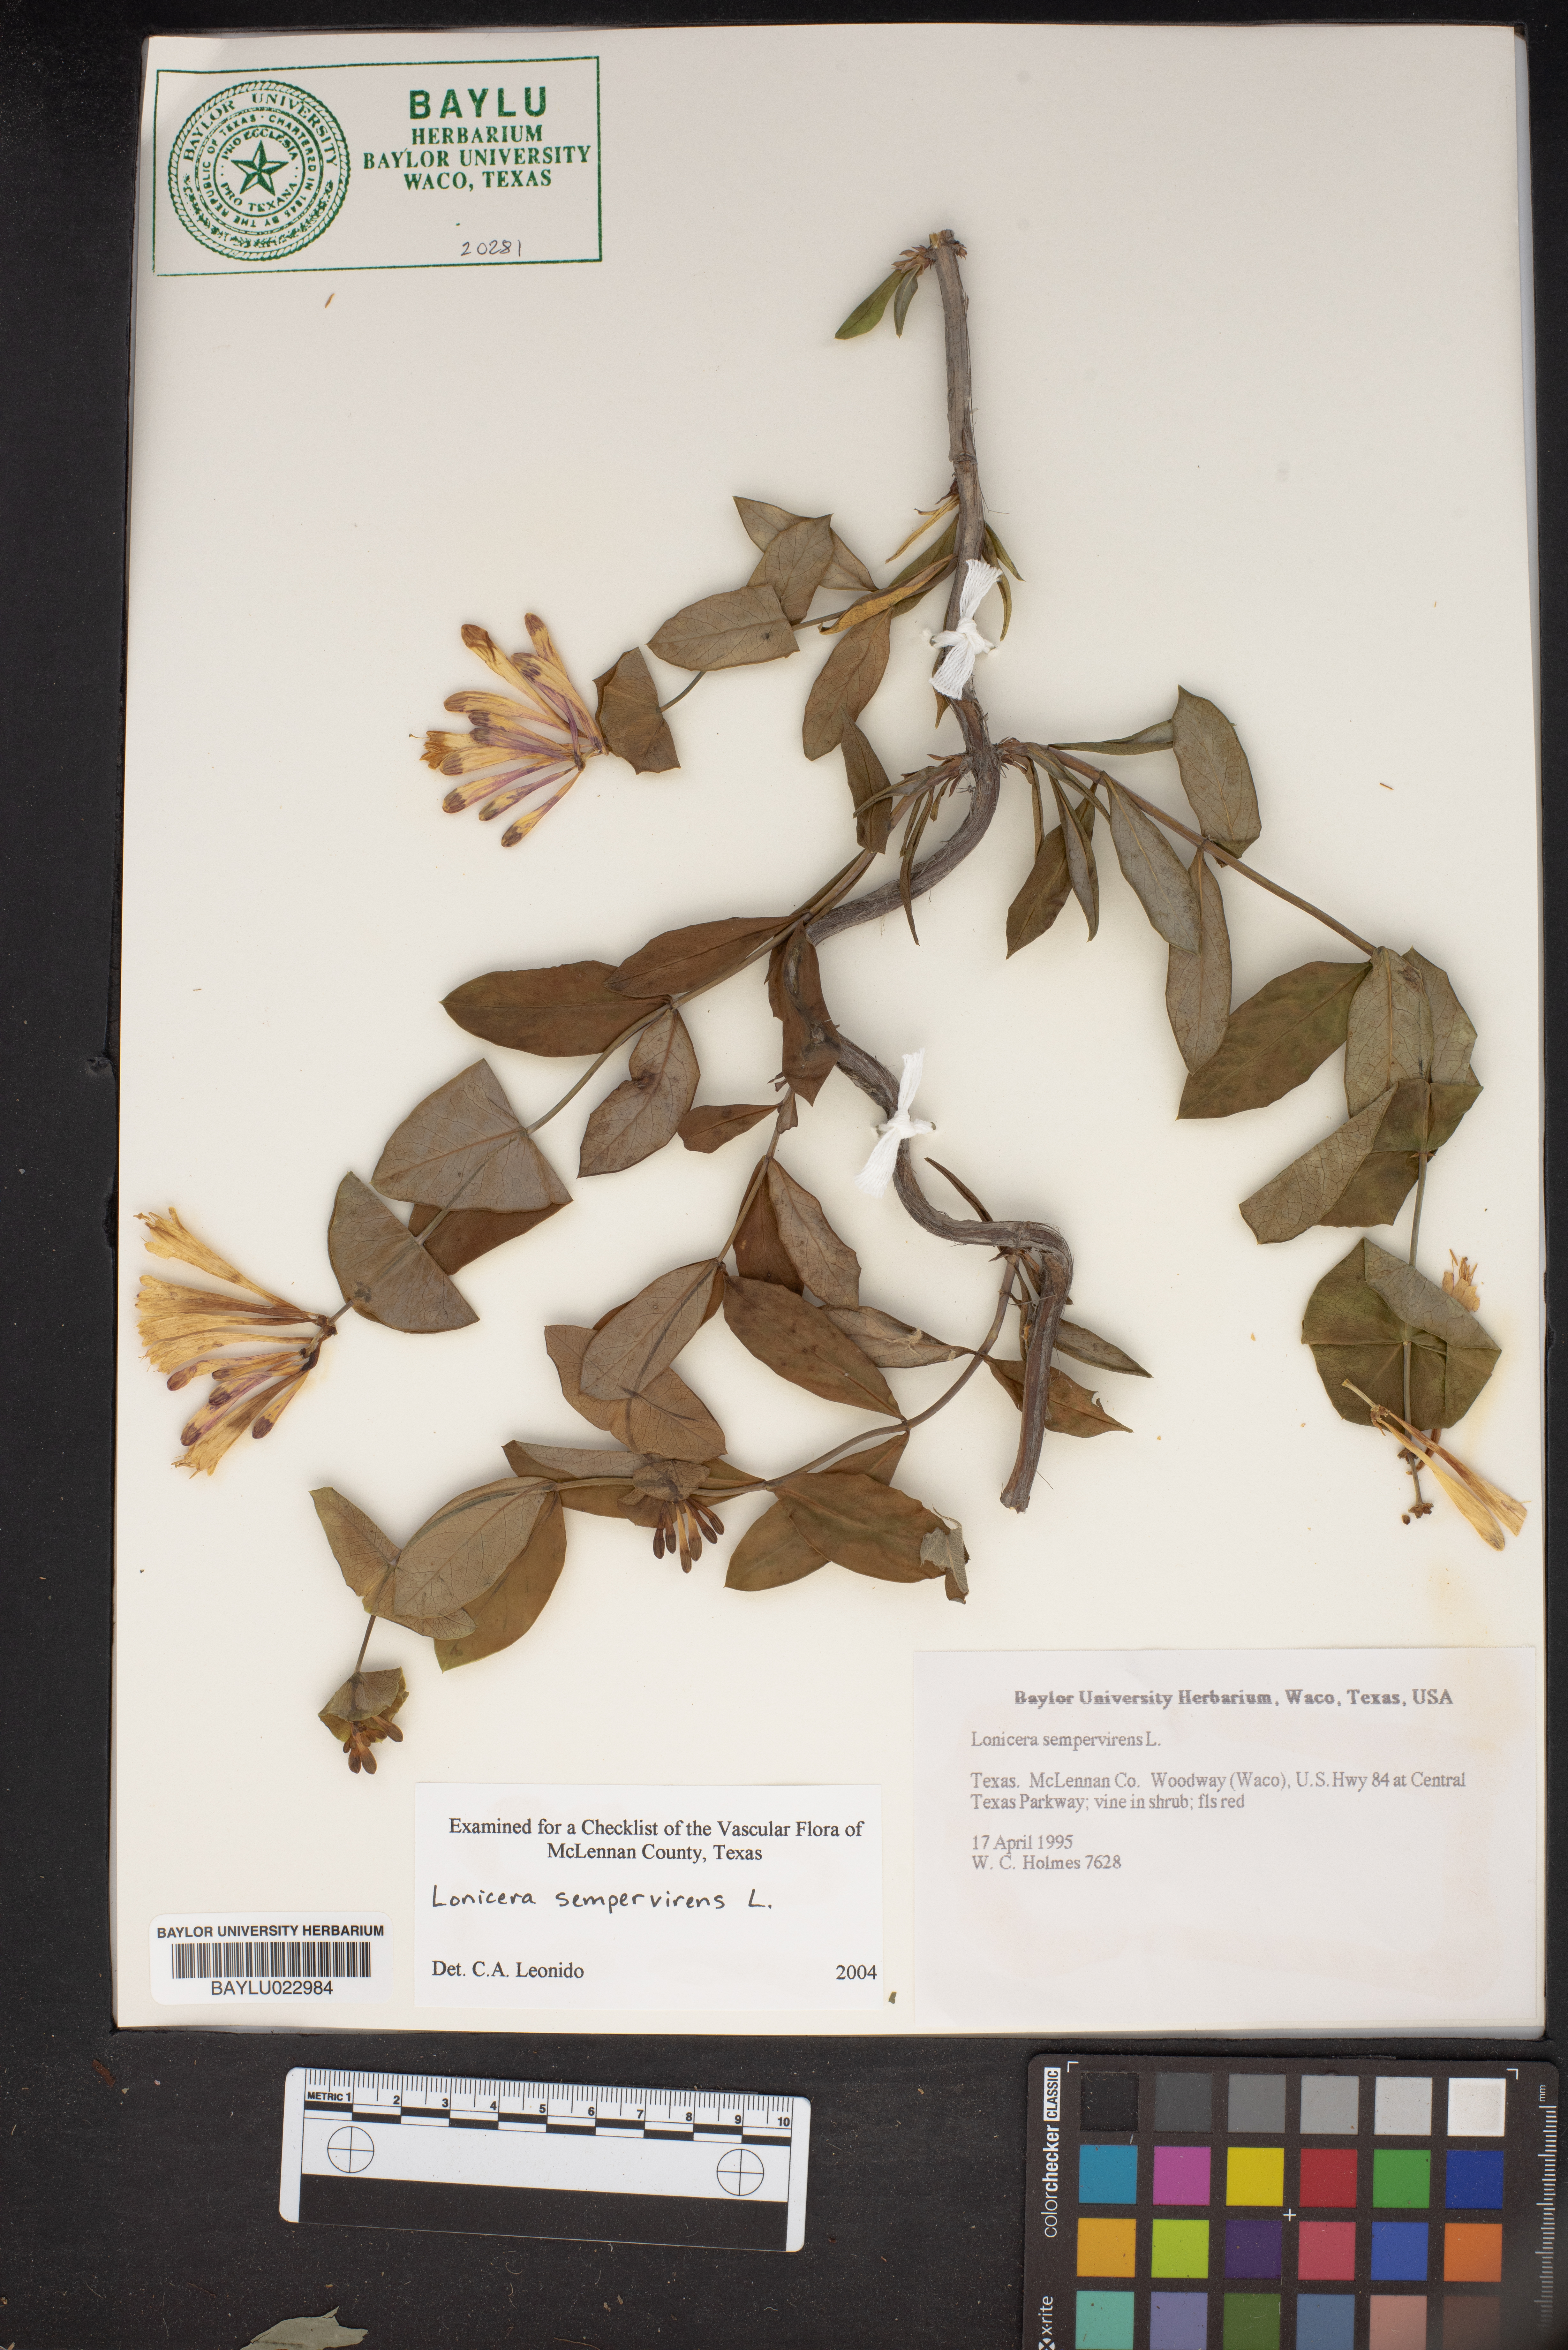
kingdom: Plantae
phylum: Tracheophyta
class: Magnoliopsida
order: Dipsacales
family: Caprifoliaceae
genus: Lonicera
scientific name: Lonicera sempervirens
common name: Coral honeysuckle
